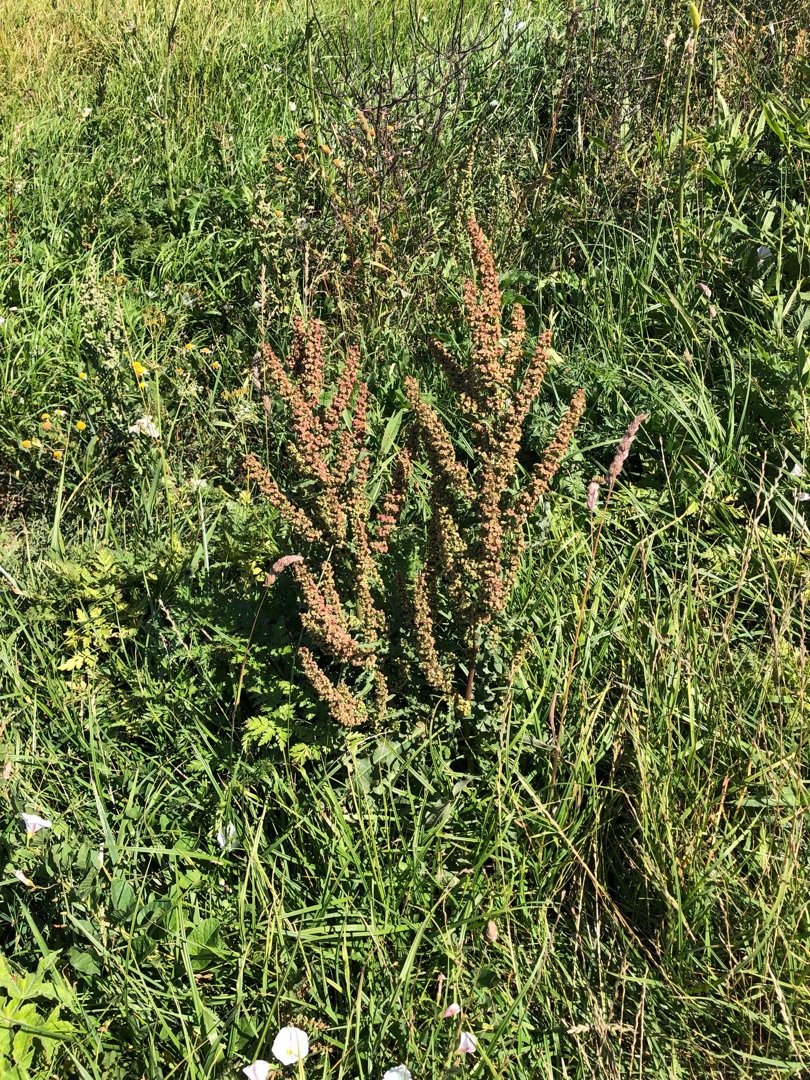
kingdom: Plantae
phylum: Tracheophyta
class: Magnoliopsida
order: Caryophyllales
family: Polygonaceae
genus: Rumex
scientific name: Rumex crispus
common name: Kruset skræppe
